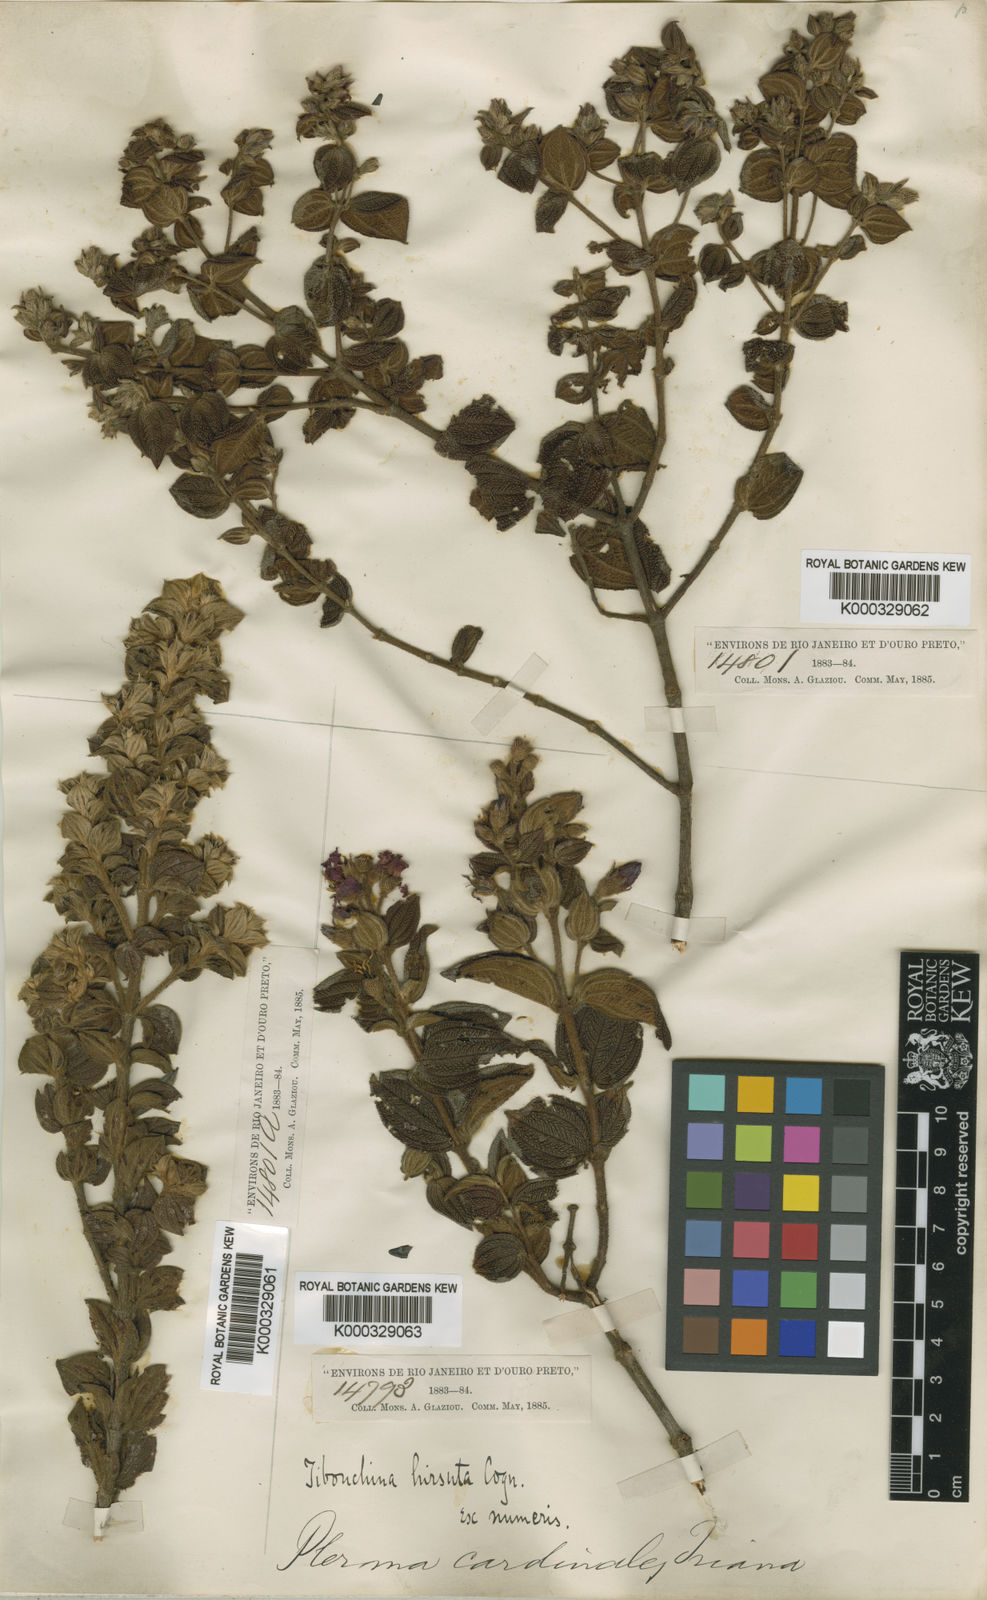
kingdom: Plantae
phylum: Tracheophyta
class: Magnoliopsida
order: Myrtales
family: Melastomataceae
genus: Pleroma
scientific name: Pleroma aemula
